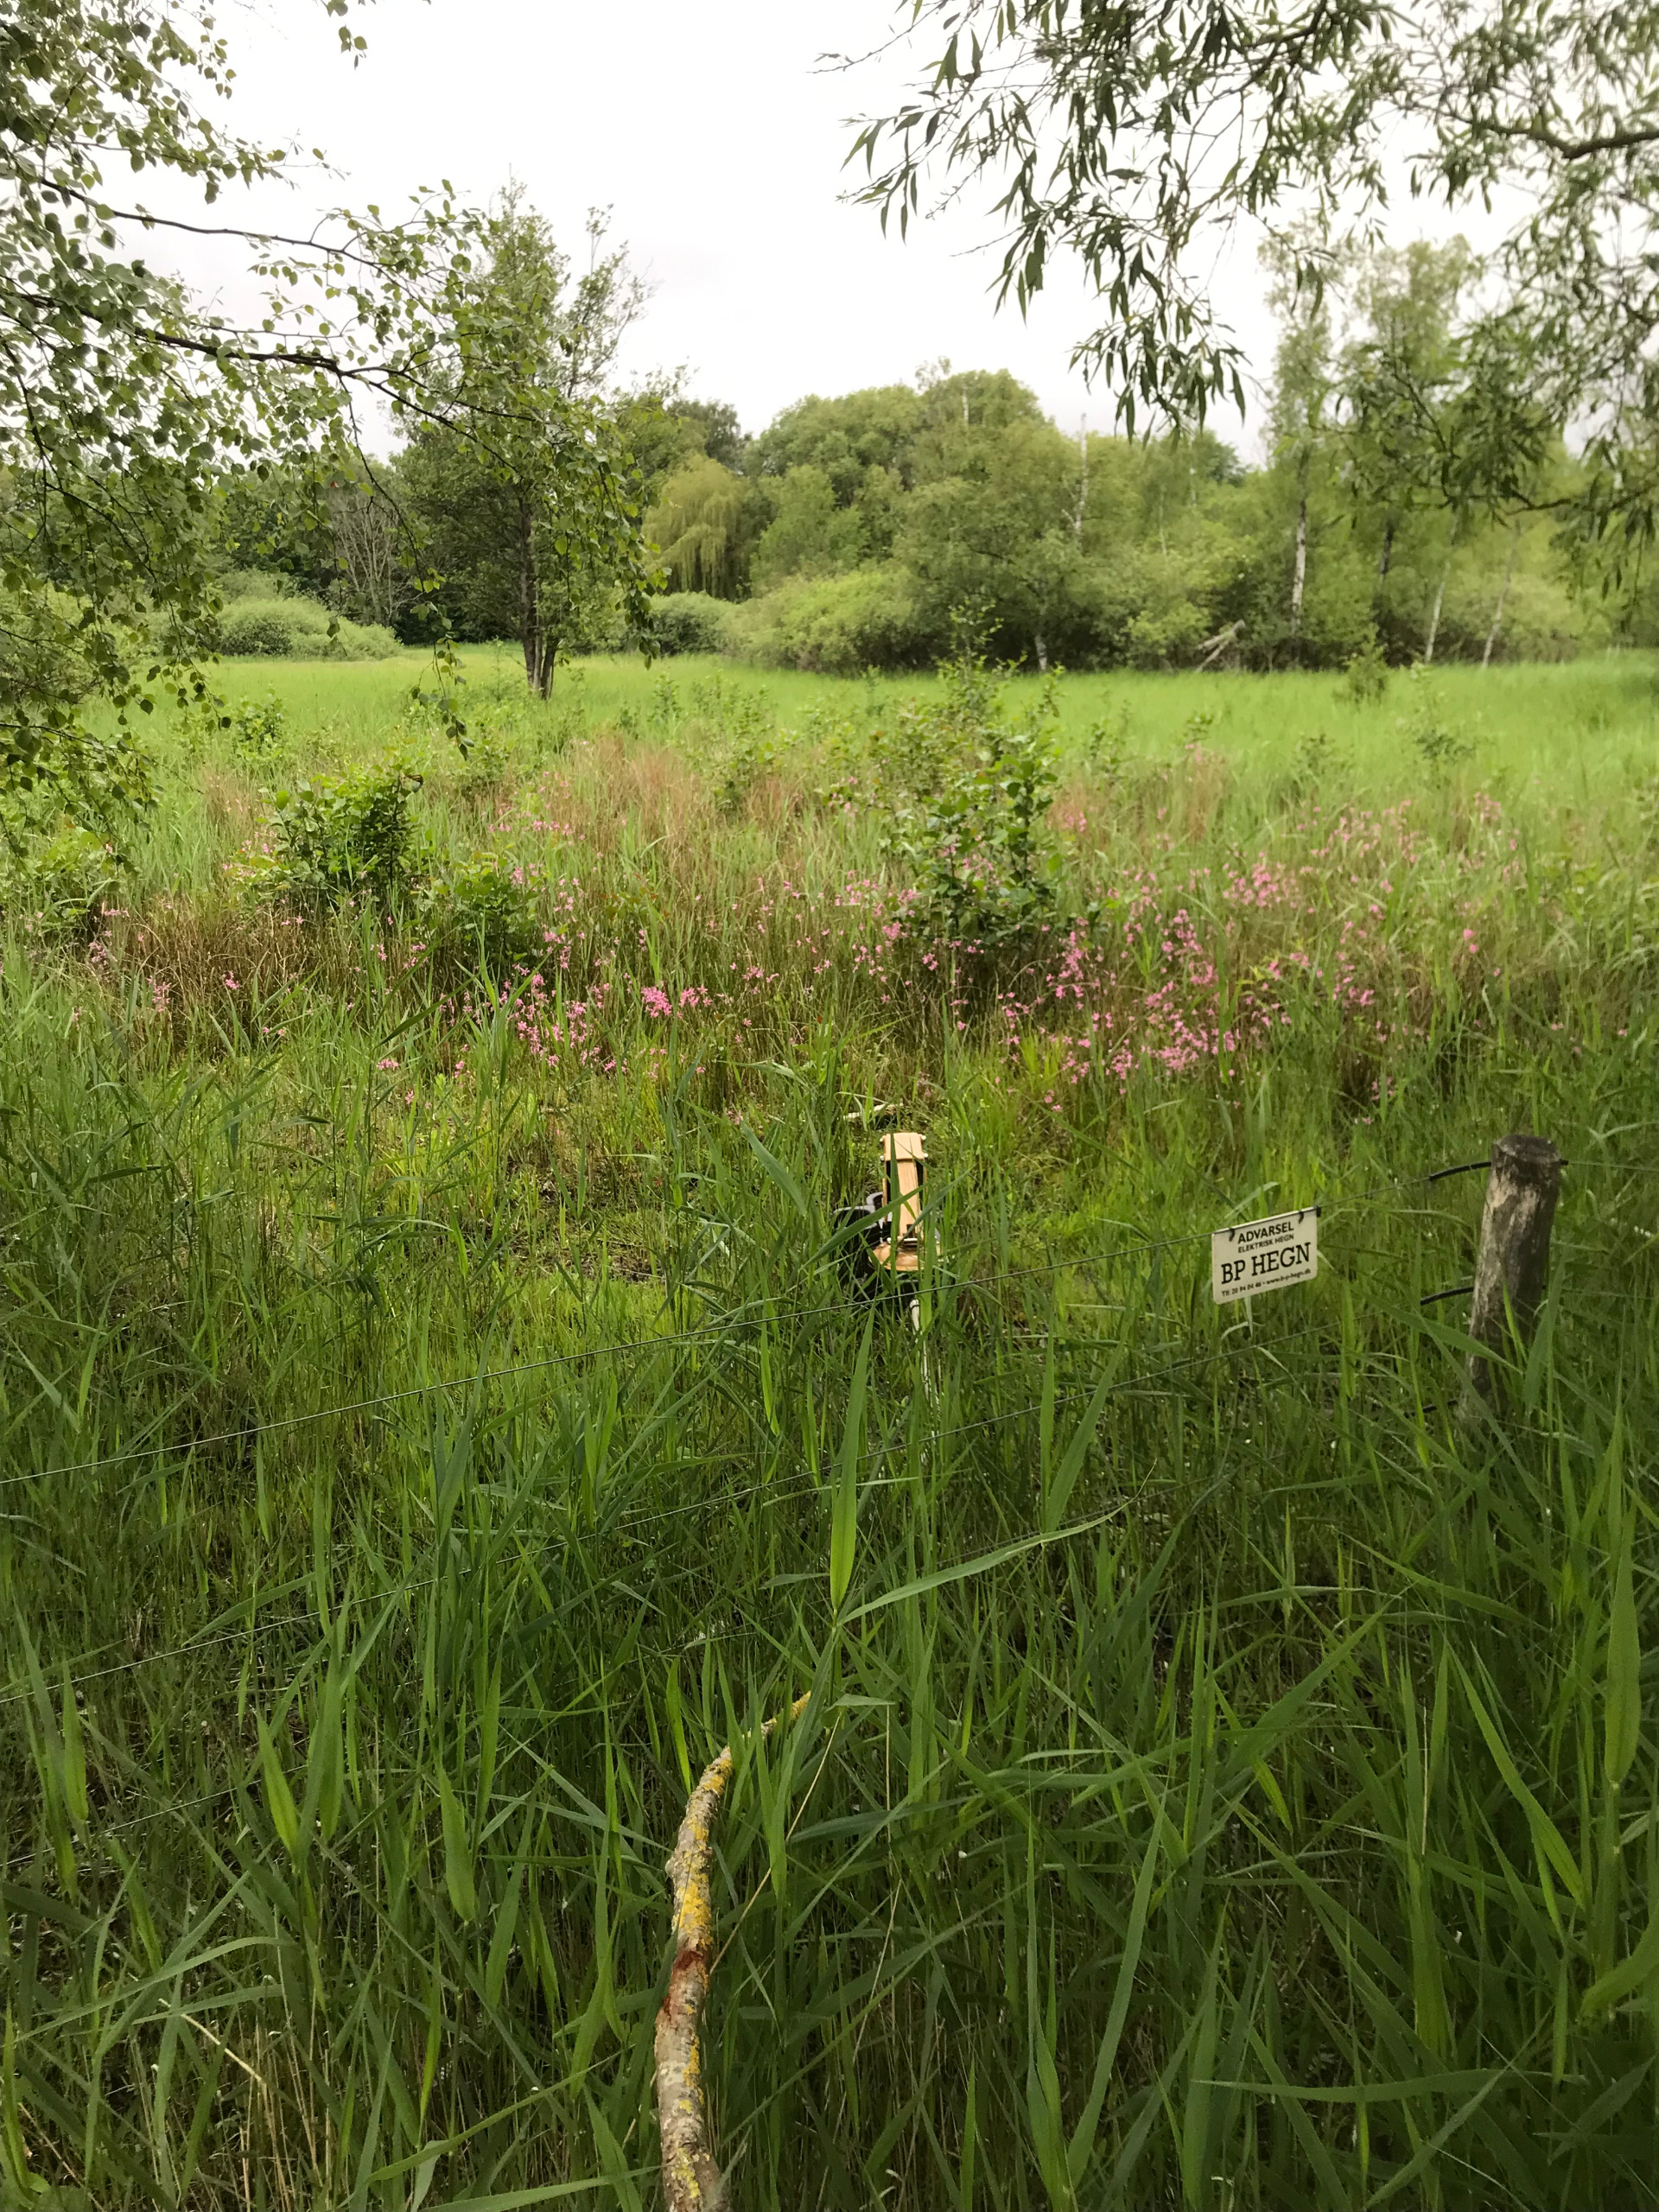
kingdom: Plantae
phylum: Tracheophyta
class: Magnoliopsida
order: Caryophyllales
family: Caryophyllaceae
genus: Silene
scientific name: Silene flos-cuculi
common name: Trævlekrone
